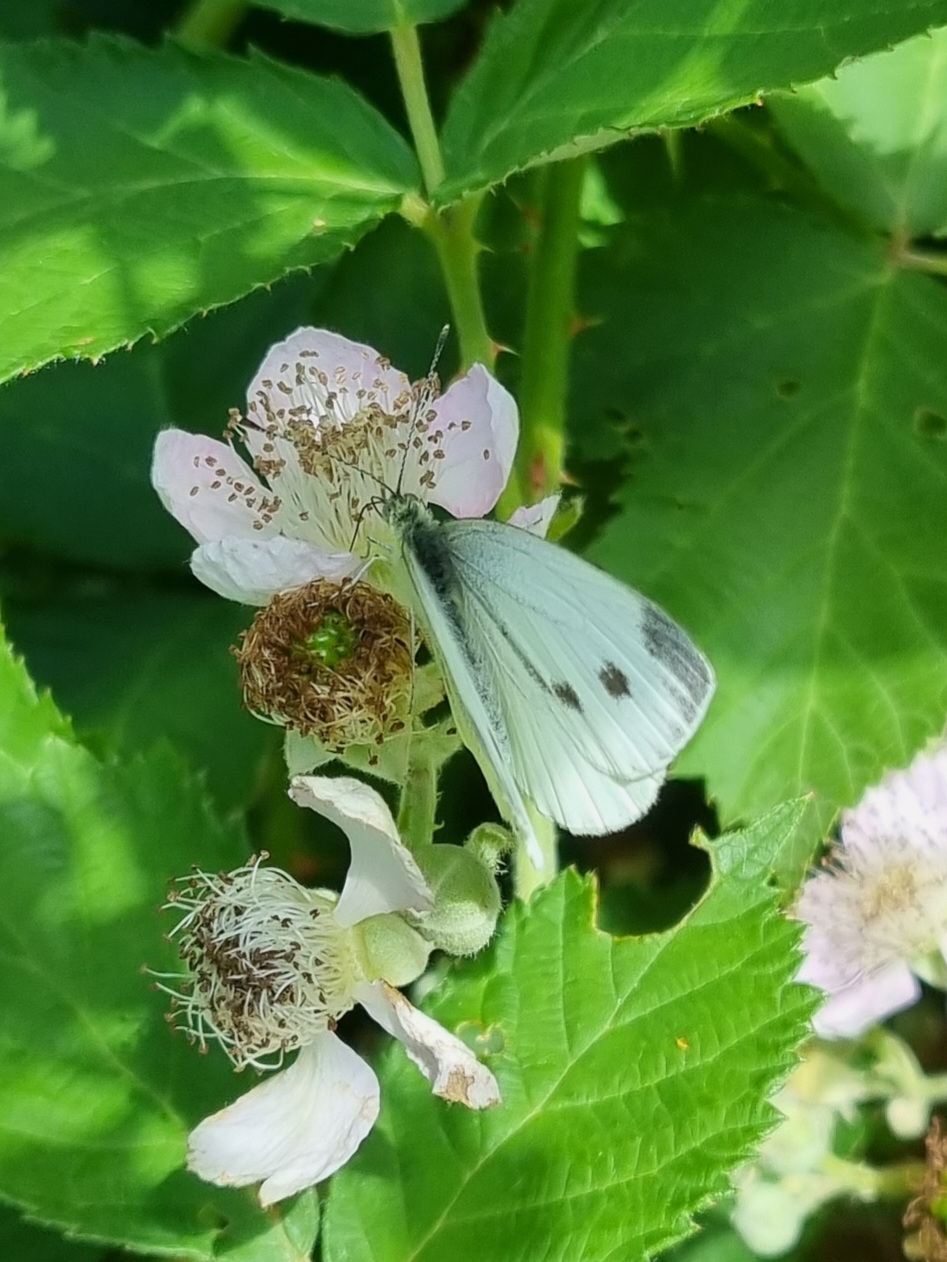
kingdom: Animalia
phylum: Arthropoda
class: Insecta
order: Lepidoptera
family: Pieridae
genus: Pieris
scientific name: Pieris napi
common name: Grønåret kålsommerfugl
